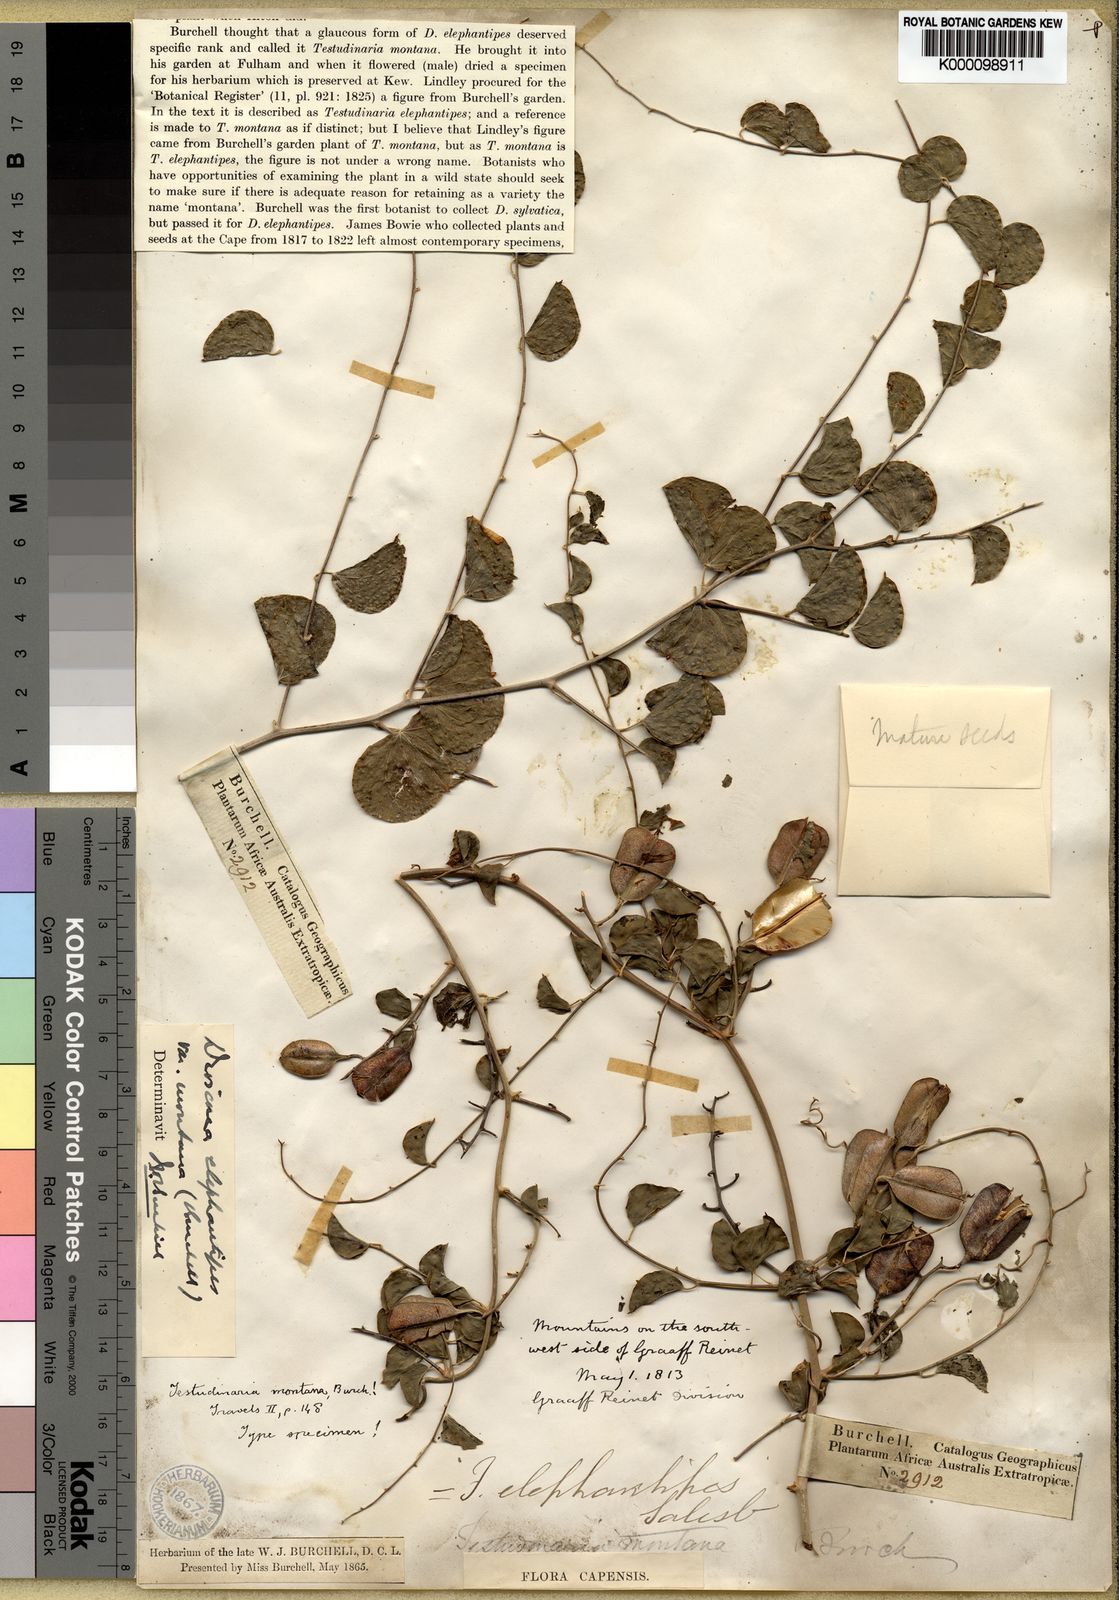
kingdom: Plantae
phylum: Tracheophyta
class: Liliopsida
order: Dioscoreales
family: Dioscoreaceae
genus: Dioscorea
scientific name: Dioscorea elephantipes
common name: Elephant's foot yam
